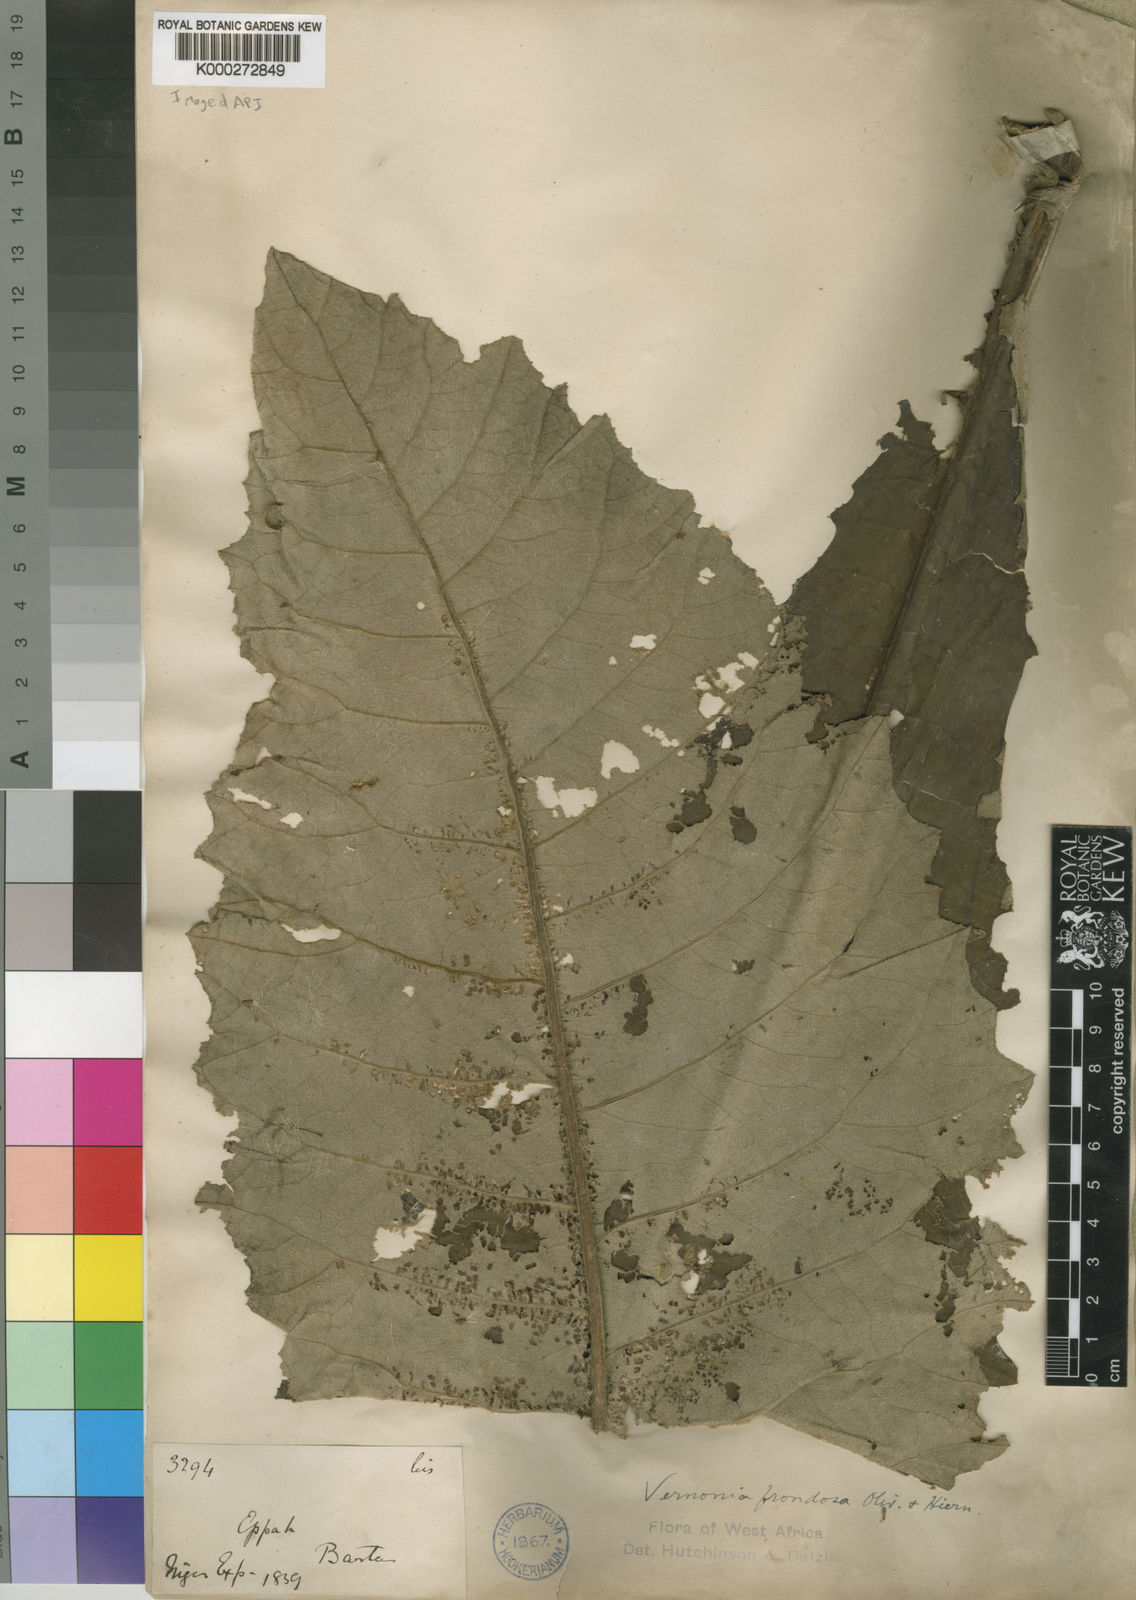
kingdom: Plantae
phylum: Tracheophyta
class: Magnoliopsida
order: Asterales
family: Asteraceae
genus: Brenandendron
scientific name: Brenandendron frondosum
